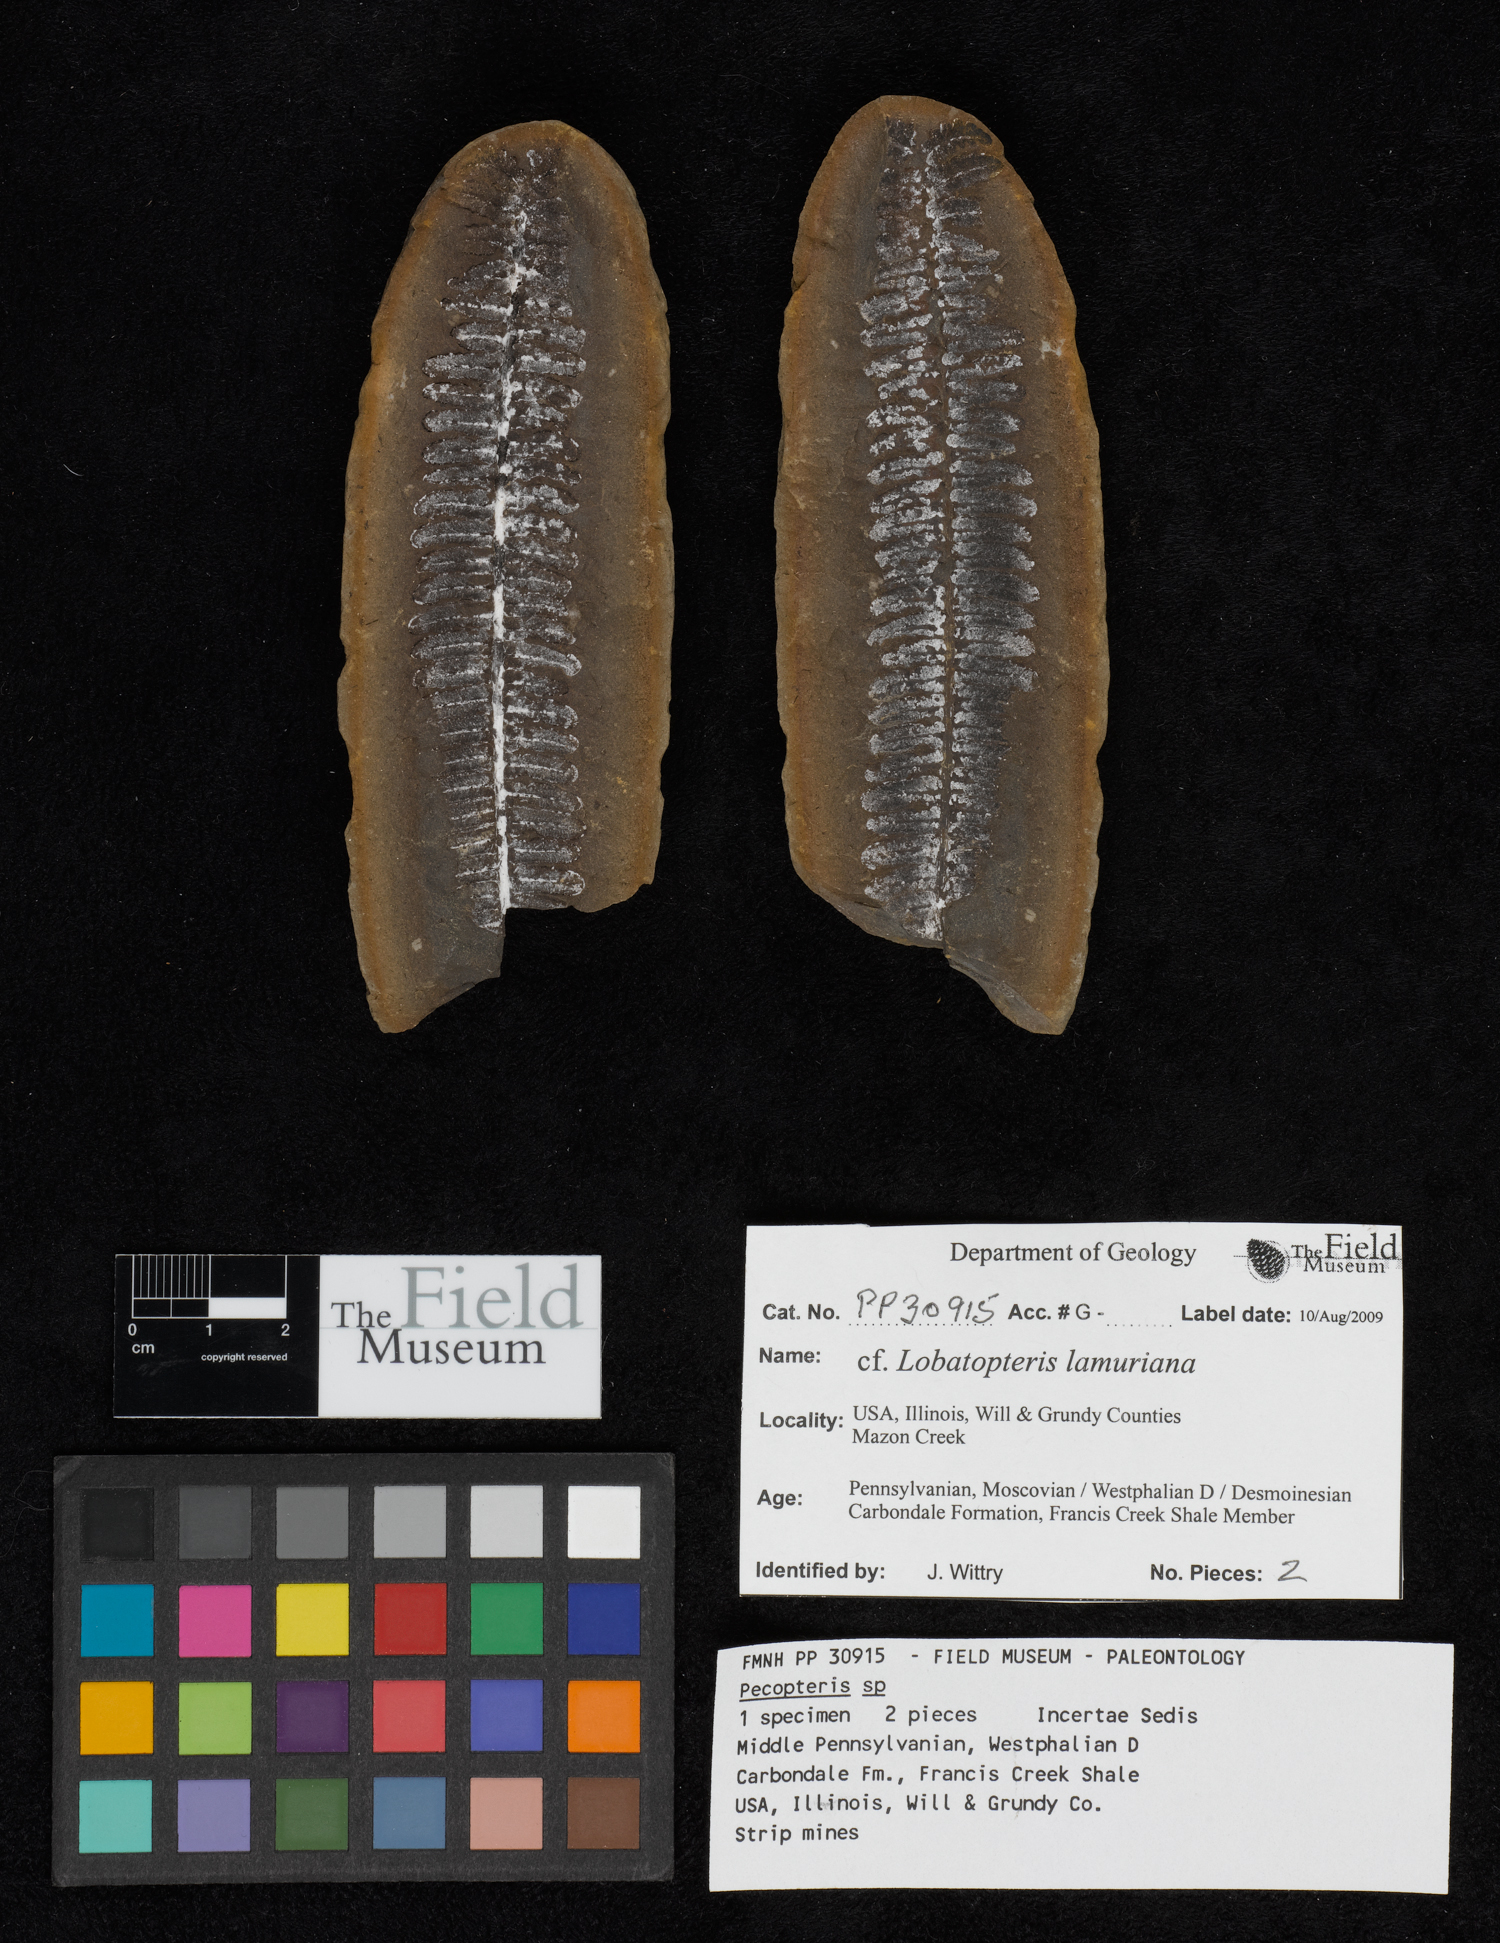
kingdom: Plantae
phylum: Tracheophyta
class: Polypodiopsida
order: Marattiales
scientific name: Marattiales
